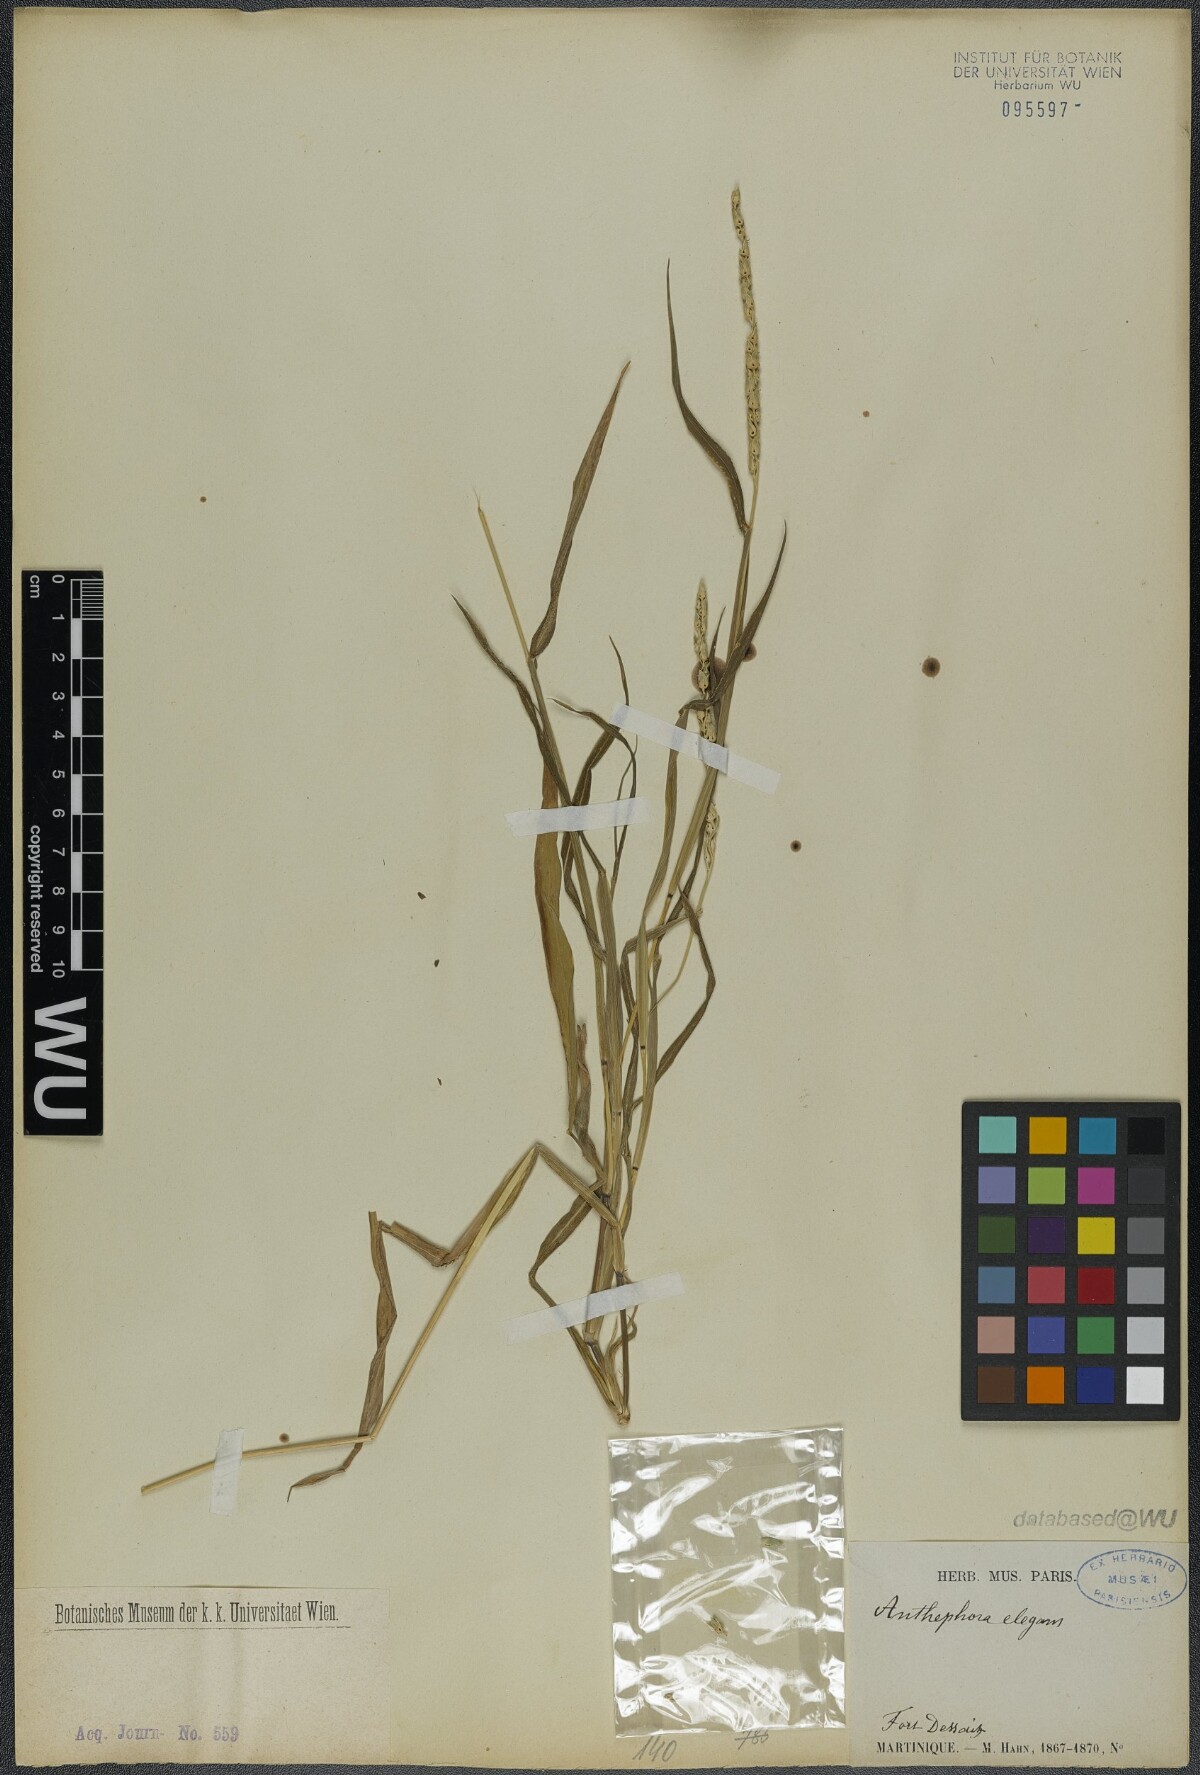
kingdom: Plantae
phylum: Tracheophyta
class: Liliopsida
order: Poales
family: Poaceae
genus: Anthephora
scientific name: Anthephora hermaphrodita
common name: Oldfield grass
